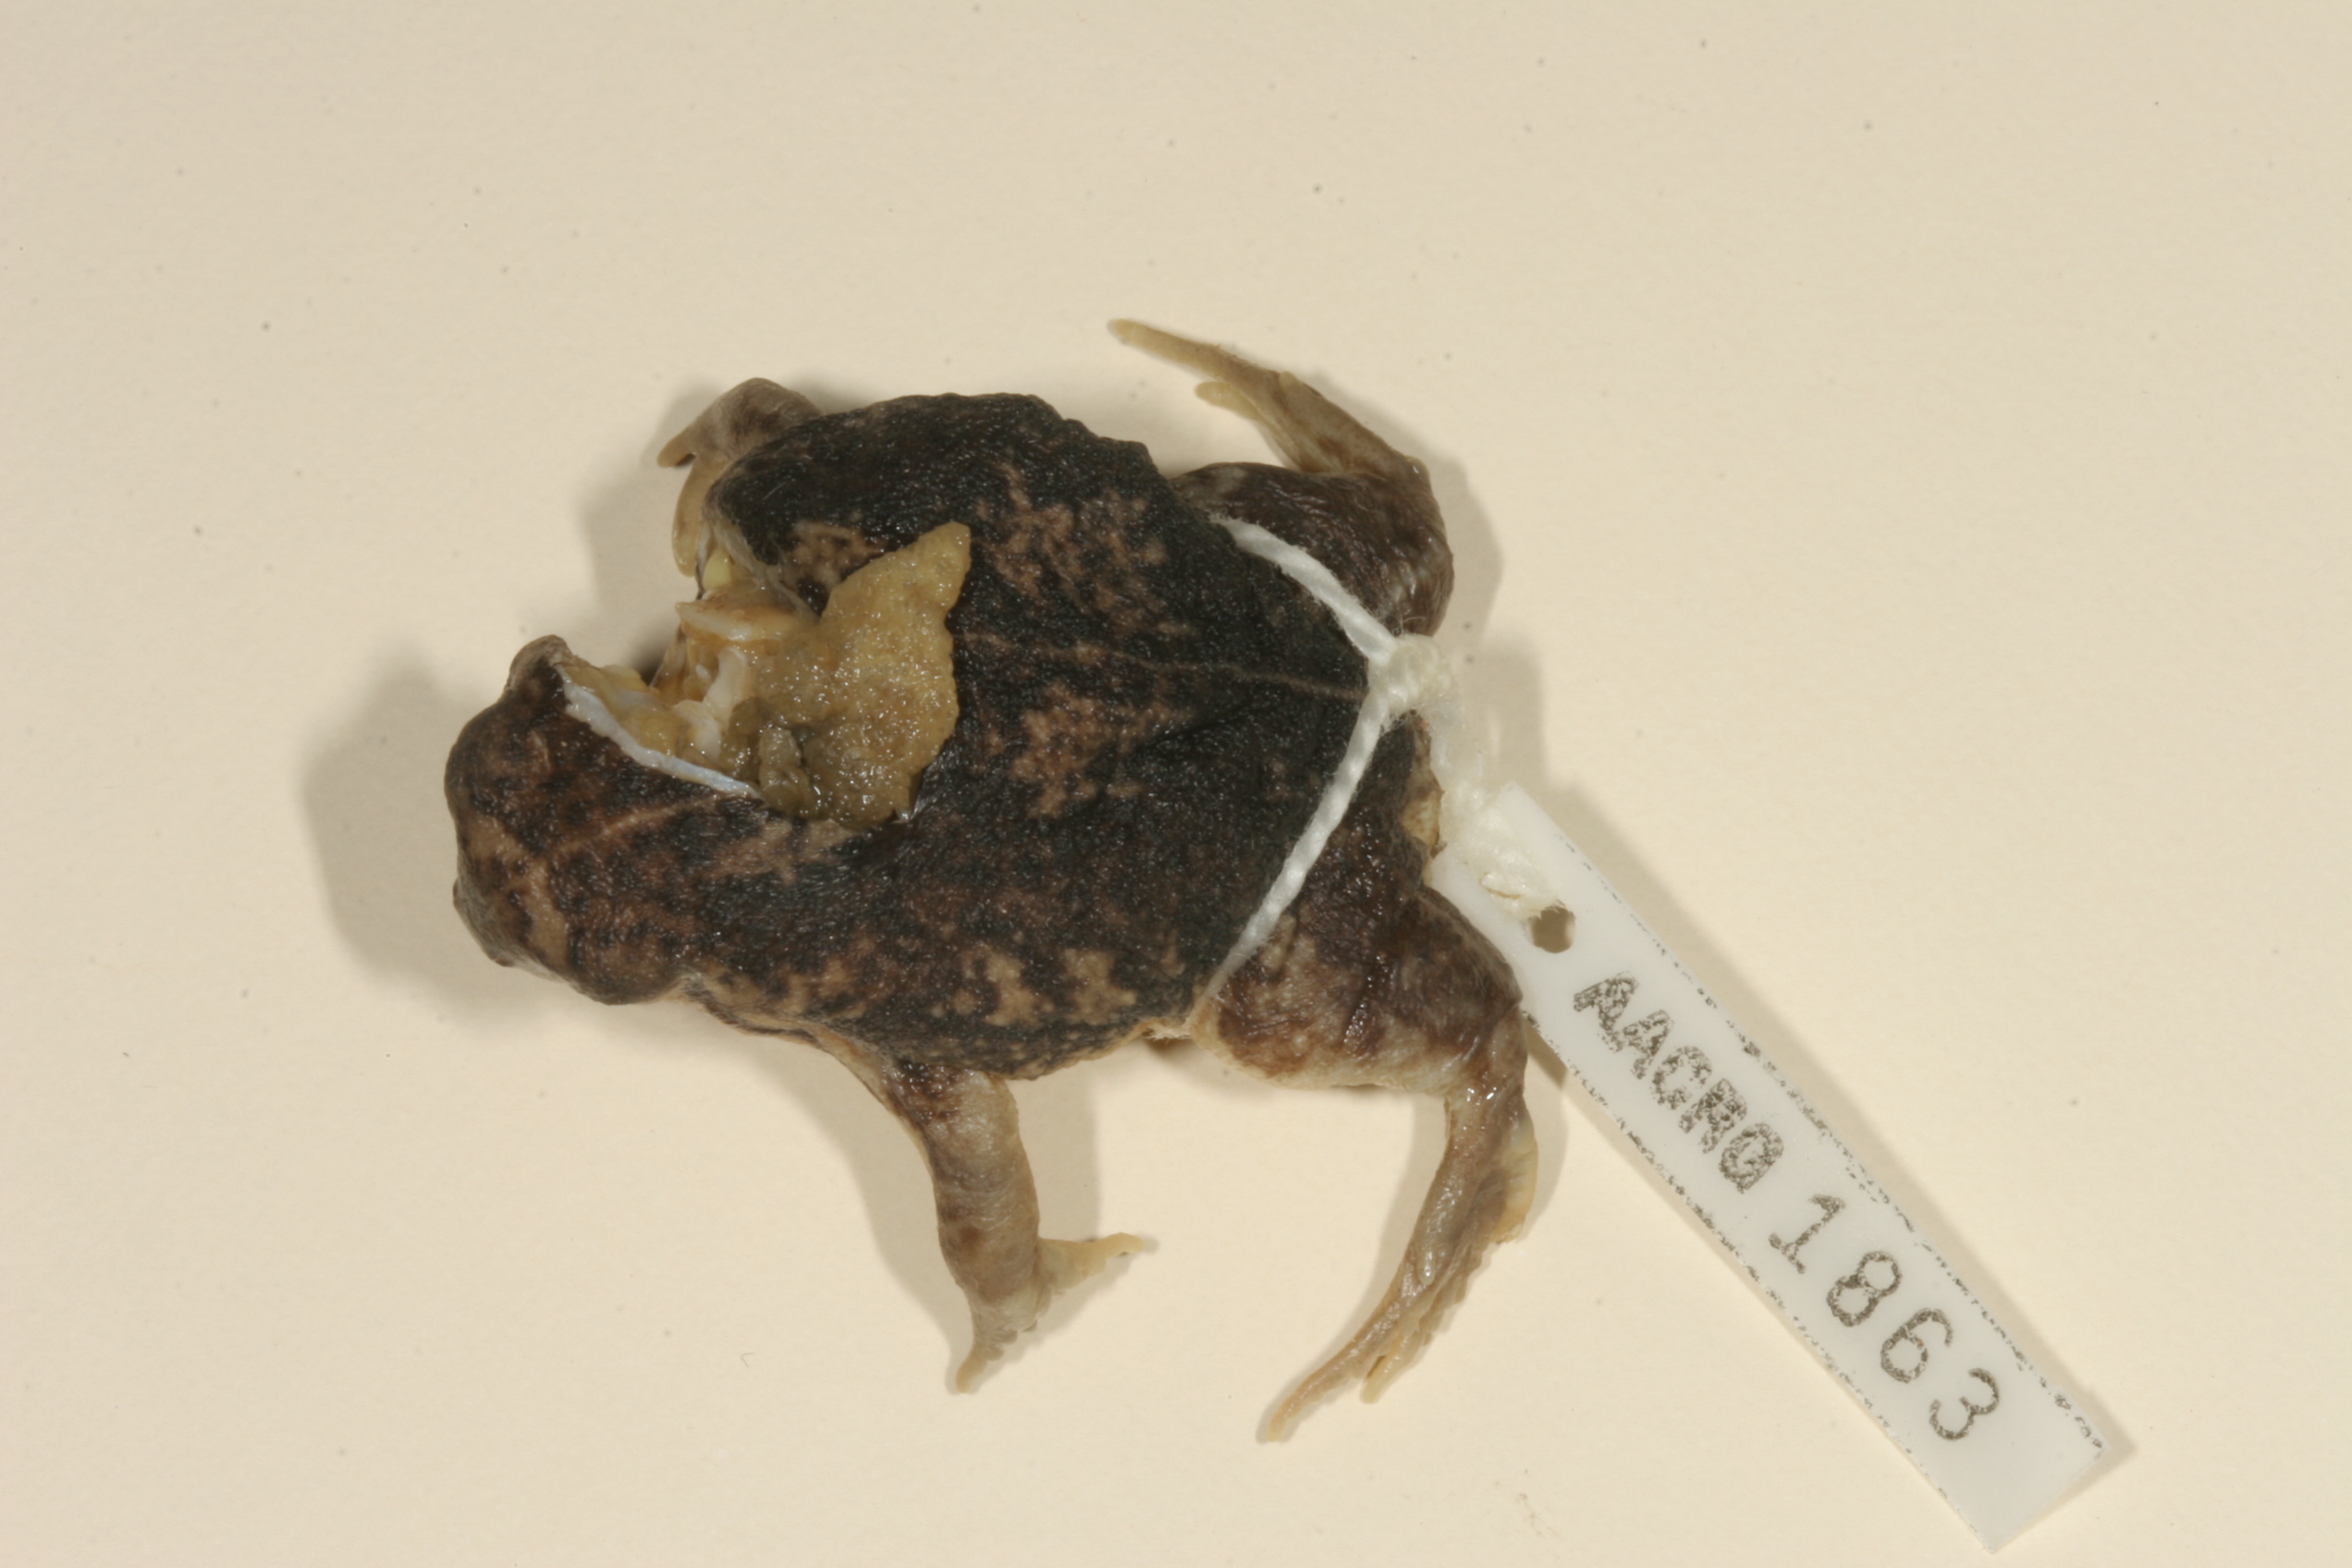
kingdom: Animalia
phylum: Chordata
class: Amphibia
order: Anura
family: Brevicipitidae
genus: Breviceps
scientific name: Breviceps adspersus
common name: Common rain frog
